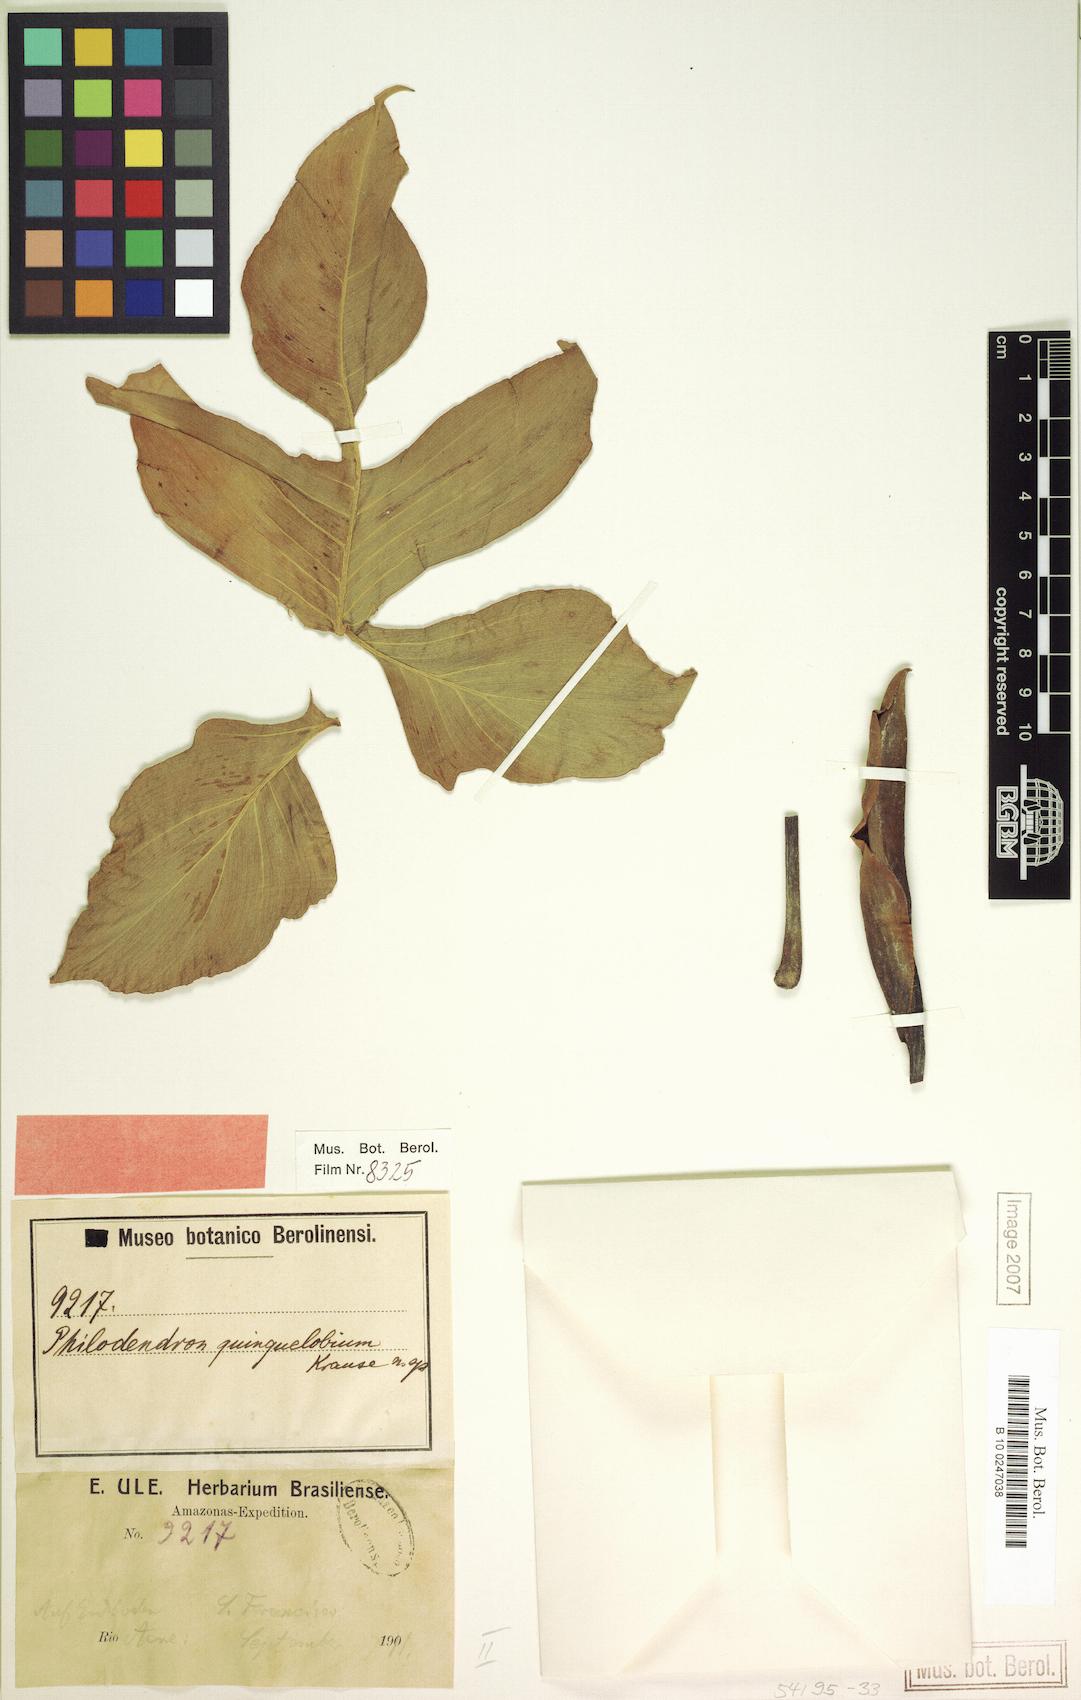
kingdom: Plantae
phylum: Tracheophyta
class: Liliopsida
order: Alismatales
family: Araceae
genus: Philodendron
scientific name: Philodendron quinquelobum
